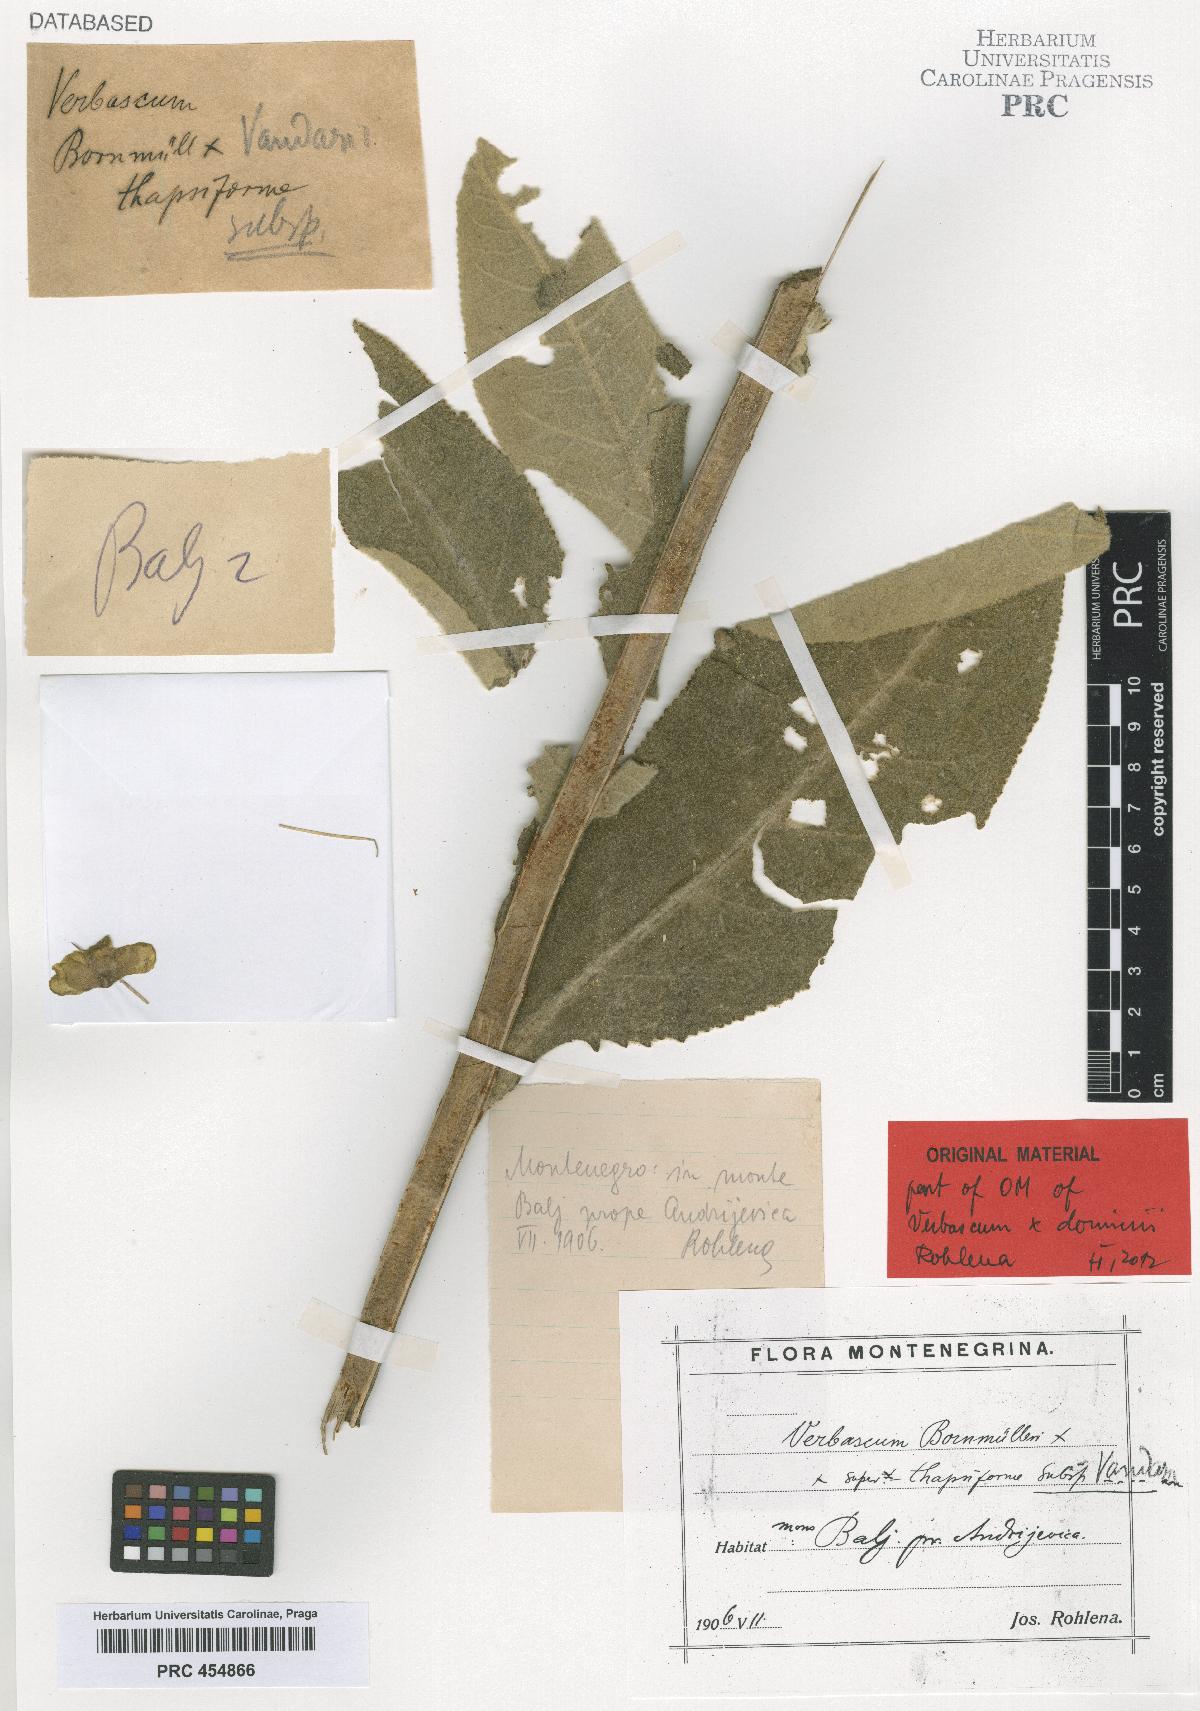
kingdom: Plantae
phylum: Tracheophyta
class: Magnoliopsida
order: Lamiales
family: Scrophulariaceae
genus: Verbascum
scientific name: Verbascum dominii
